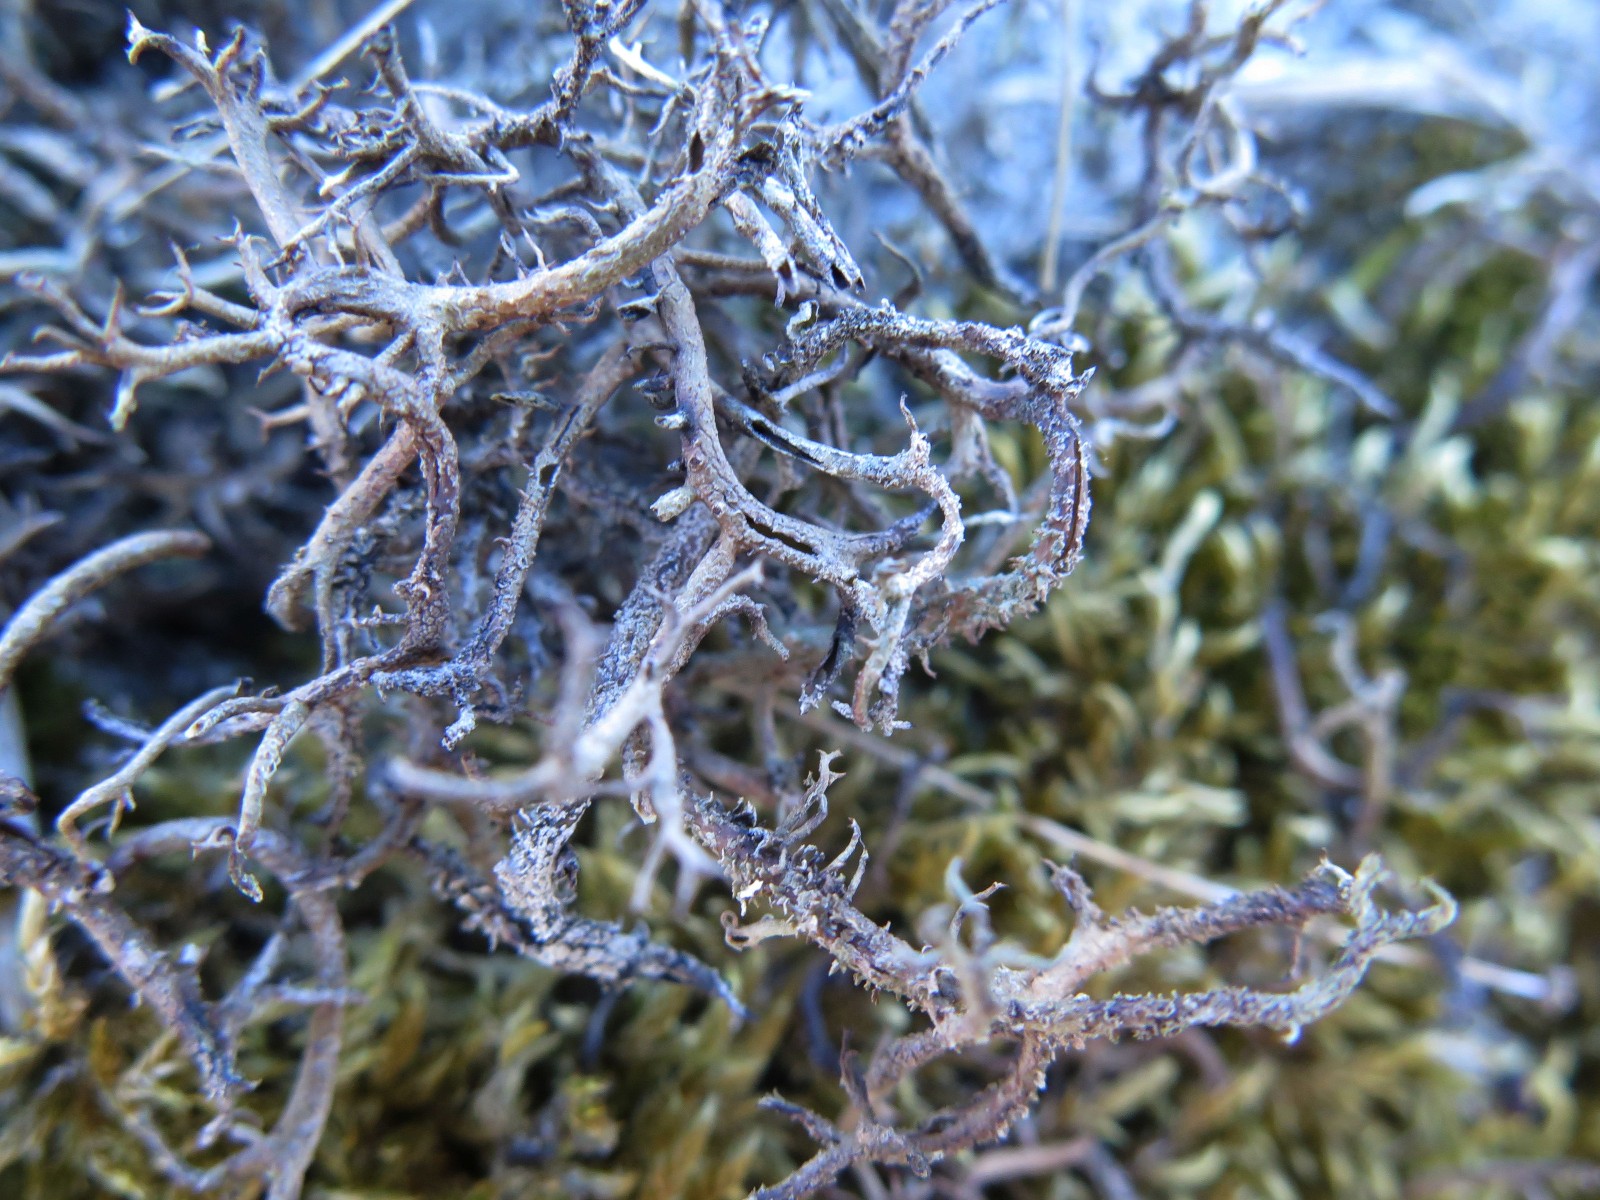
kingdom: Fungi
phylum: Ascomycota
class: Lecanoromycetes
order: Lecanorales
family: Cladoniaceae
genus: Cladonia
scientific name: Cladonia scabriuscula
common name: ru bægerlav
